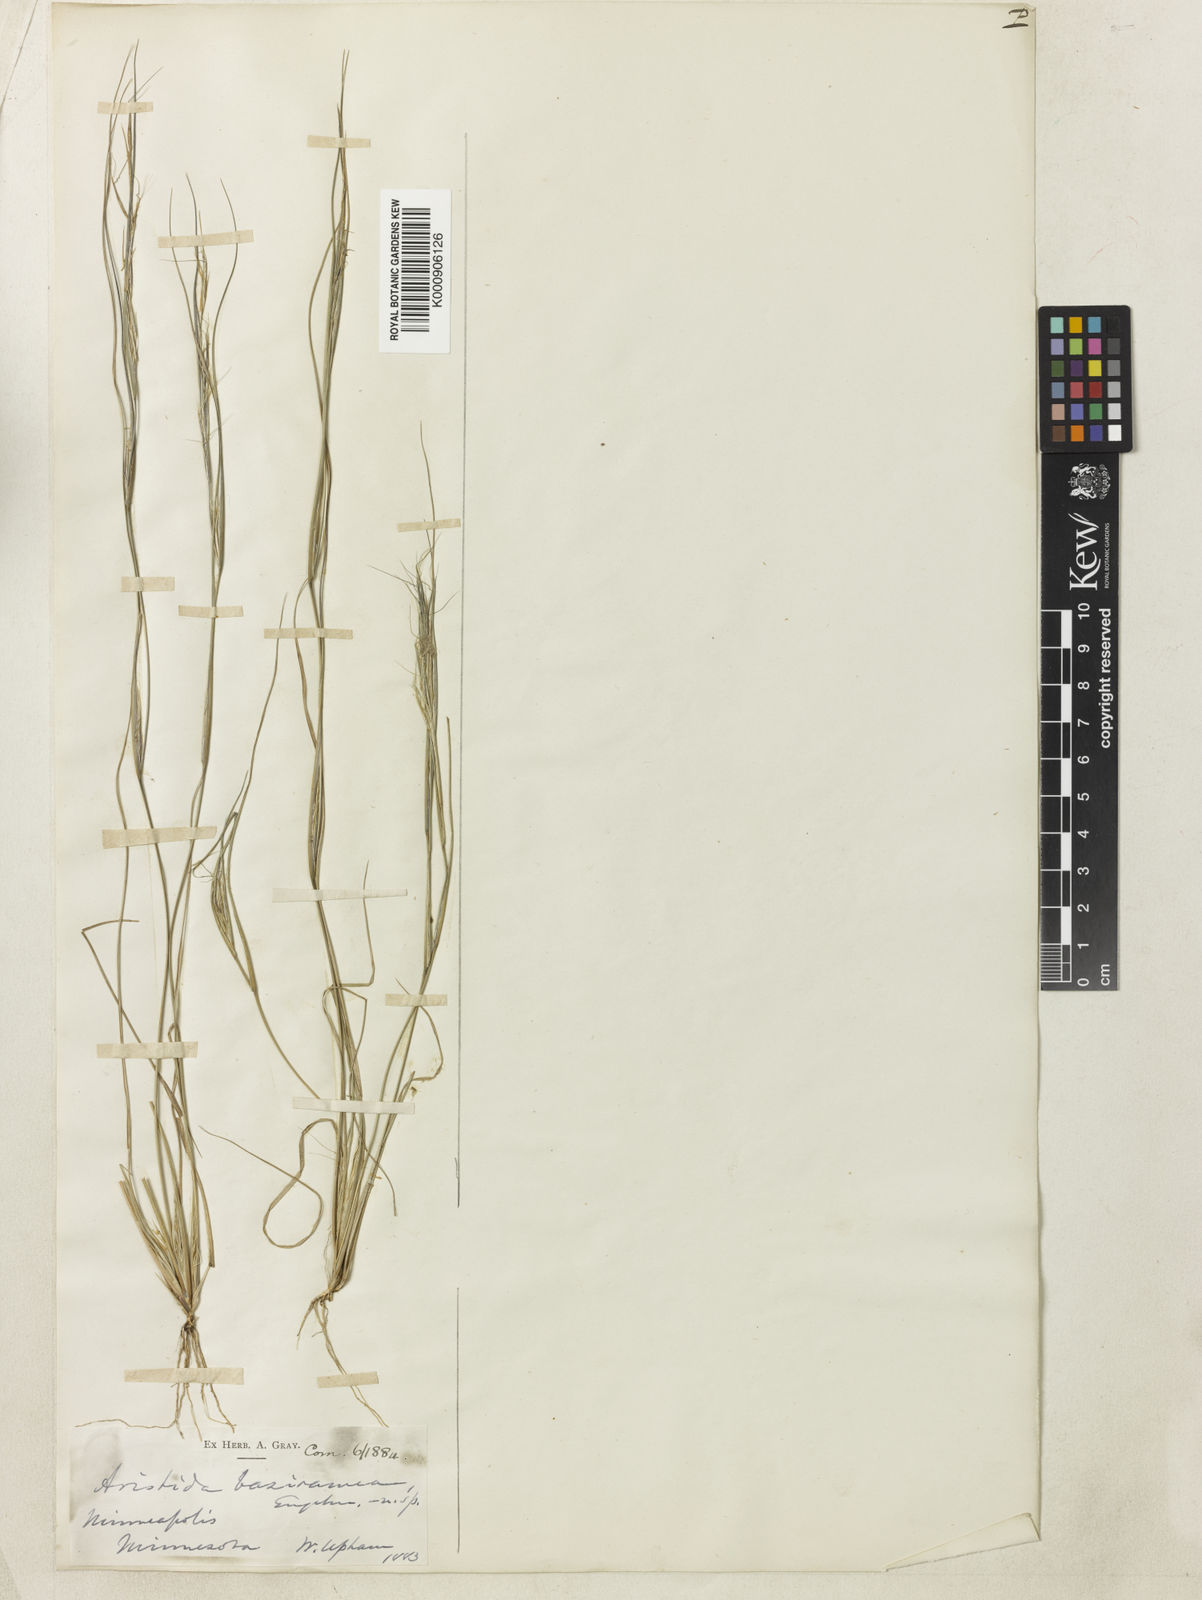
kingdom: Plantae
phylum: Tracheophyta
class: Liliopsida
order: Poales
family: Poaceae
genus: Aristida
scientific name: Aristida
